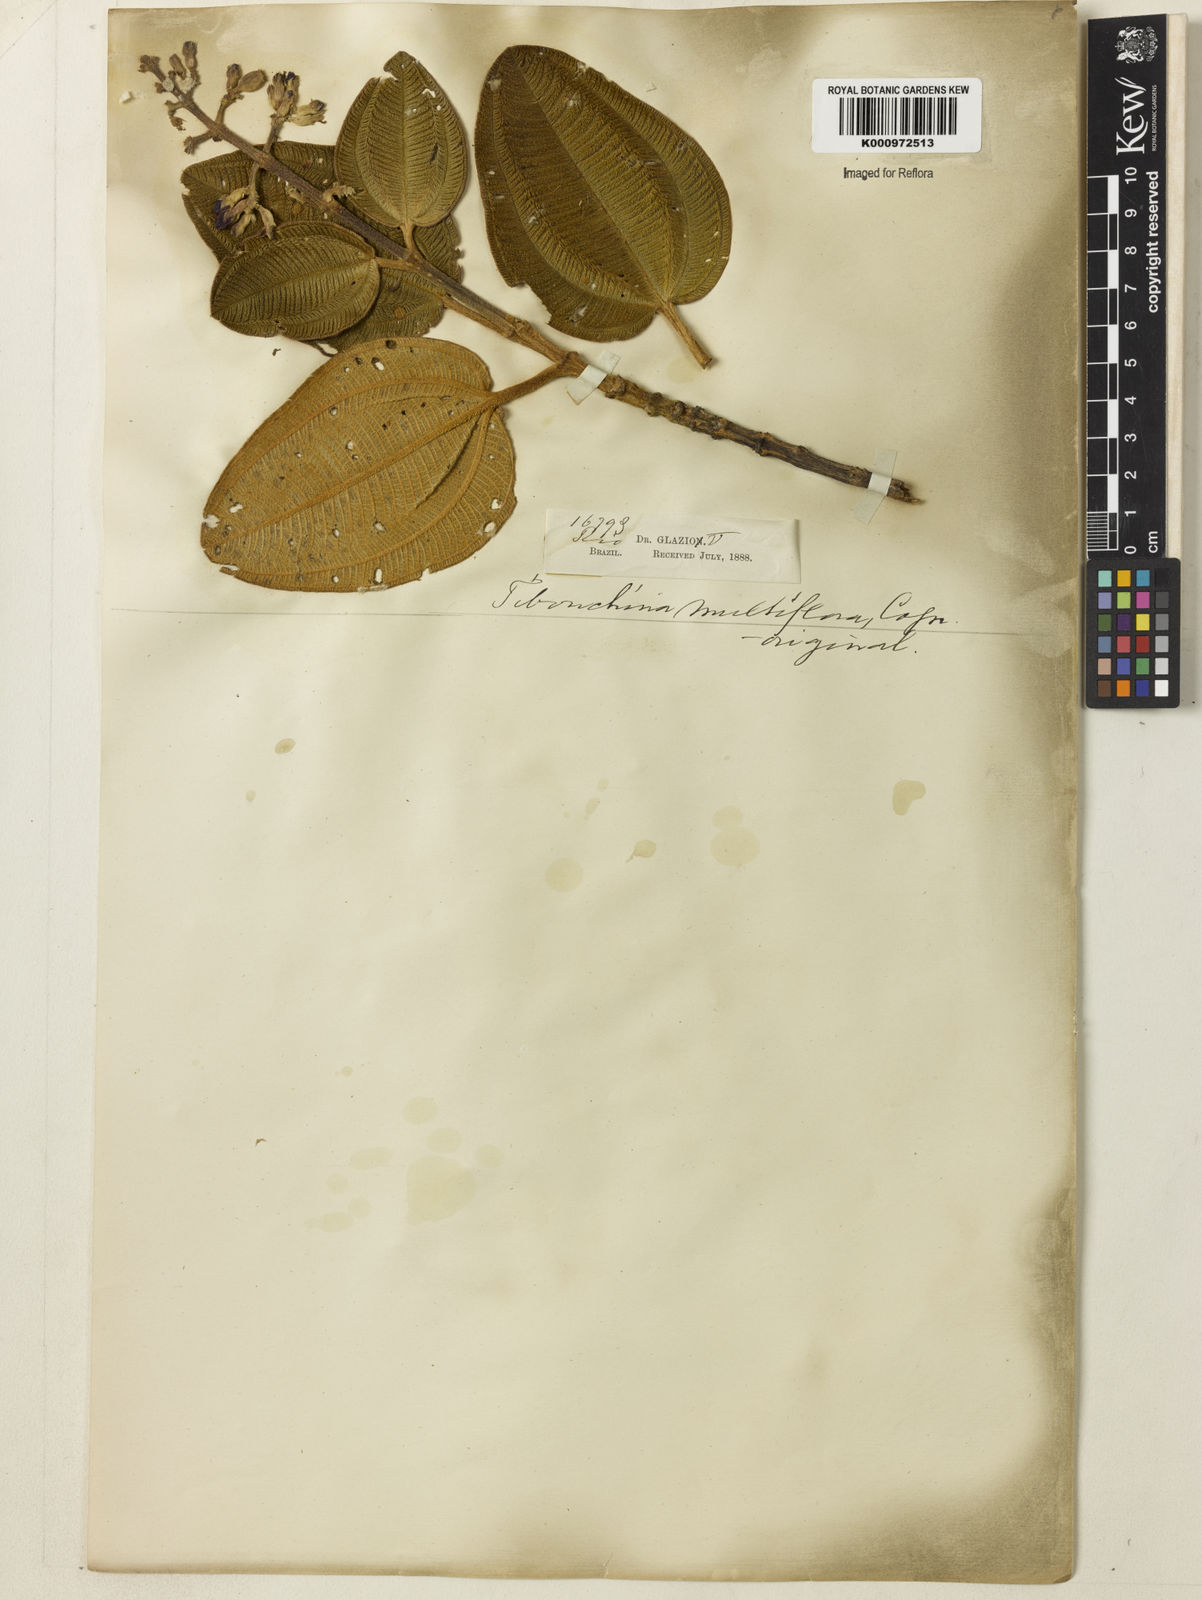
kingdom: Plantae
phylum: Tracheophyta
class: Magnoliopsida
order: Myrtales
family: Melastomataceae
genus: Pleroma
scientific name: Pleroma heteromallum
